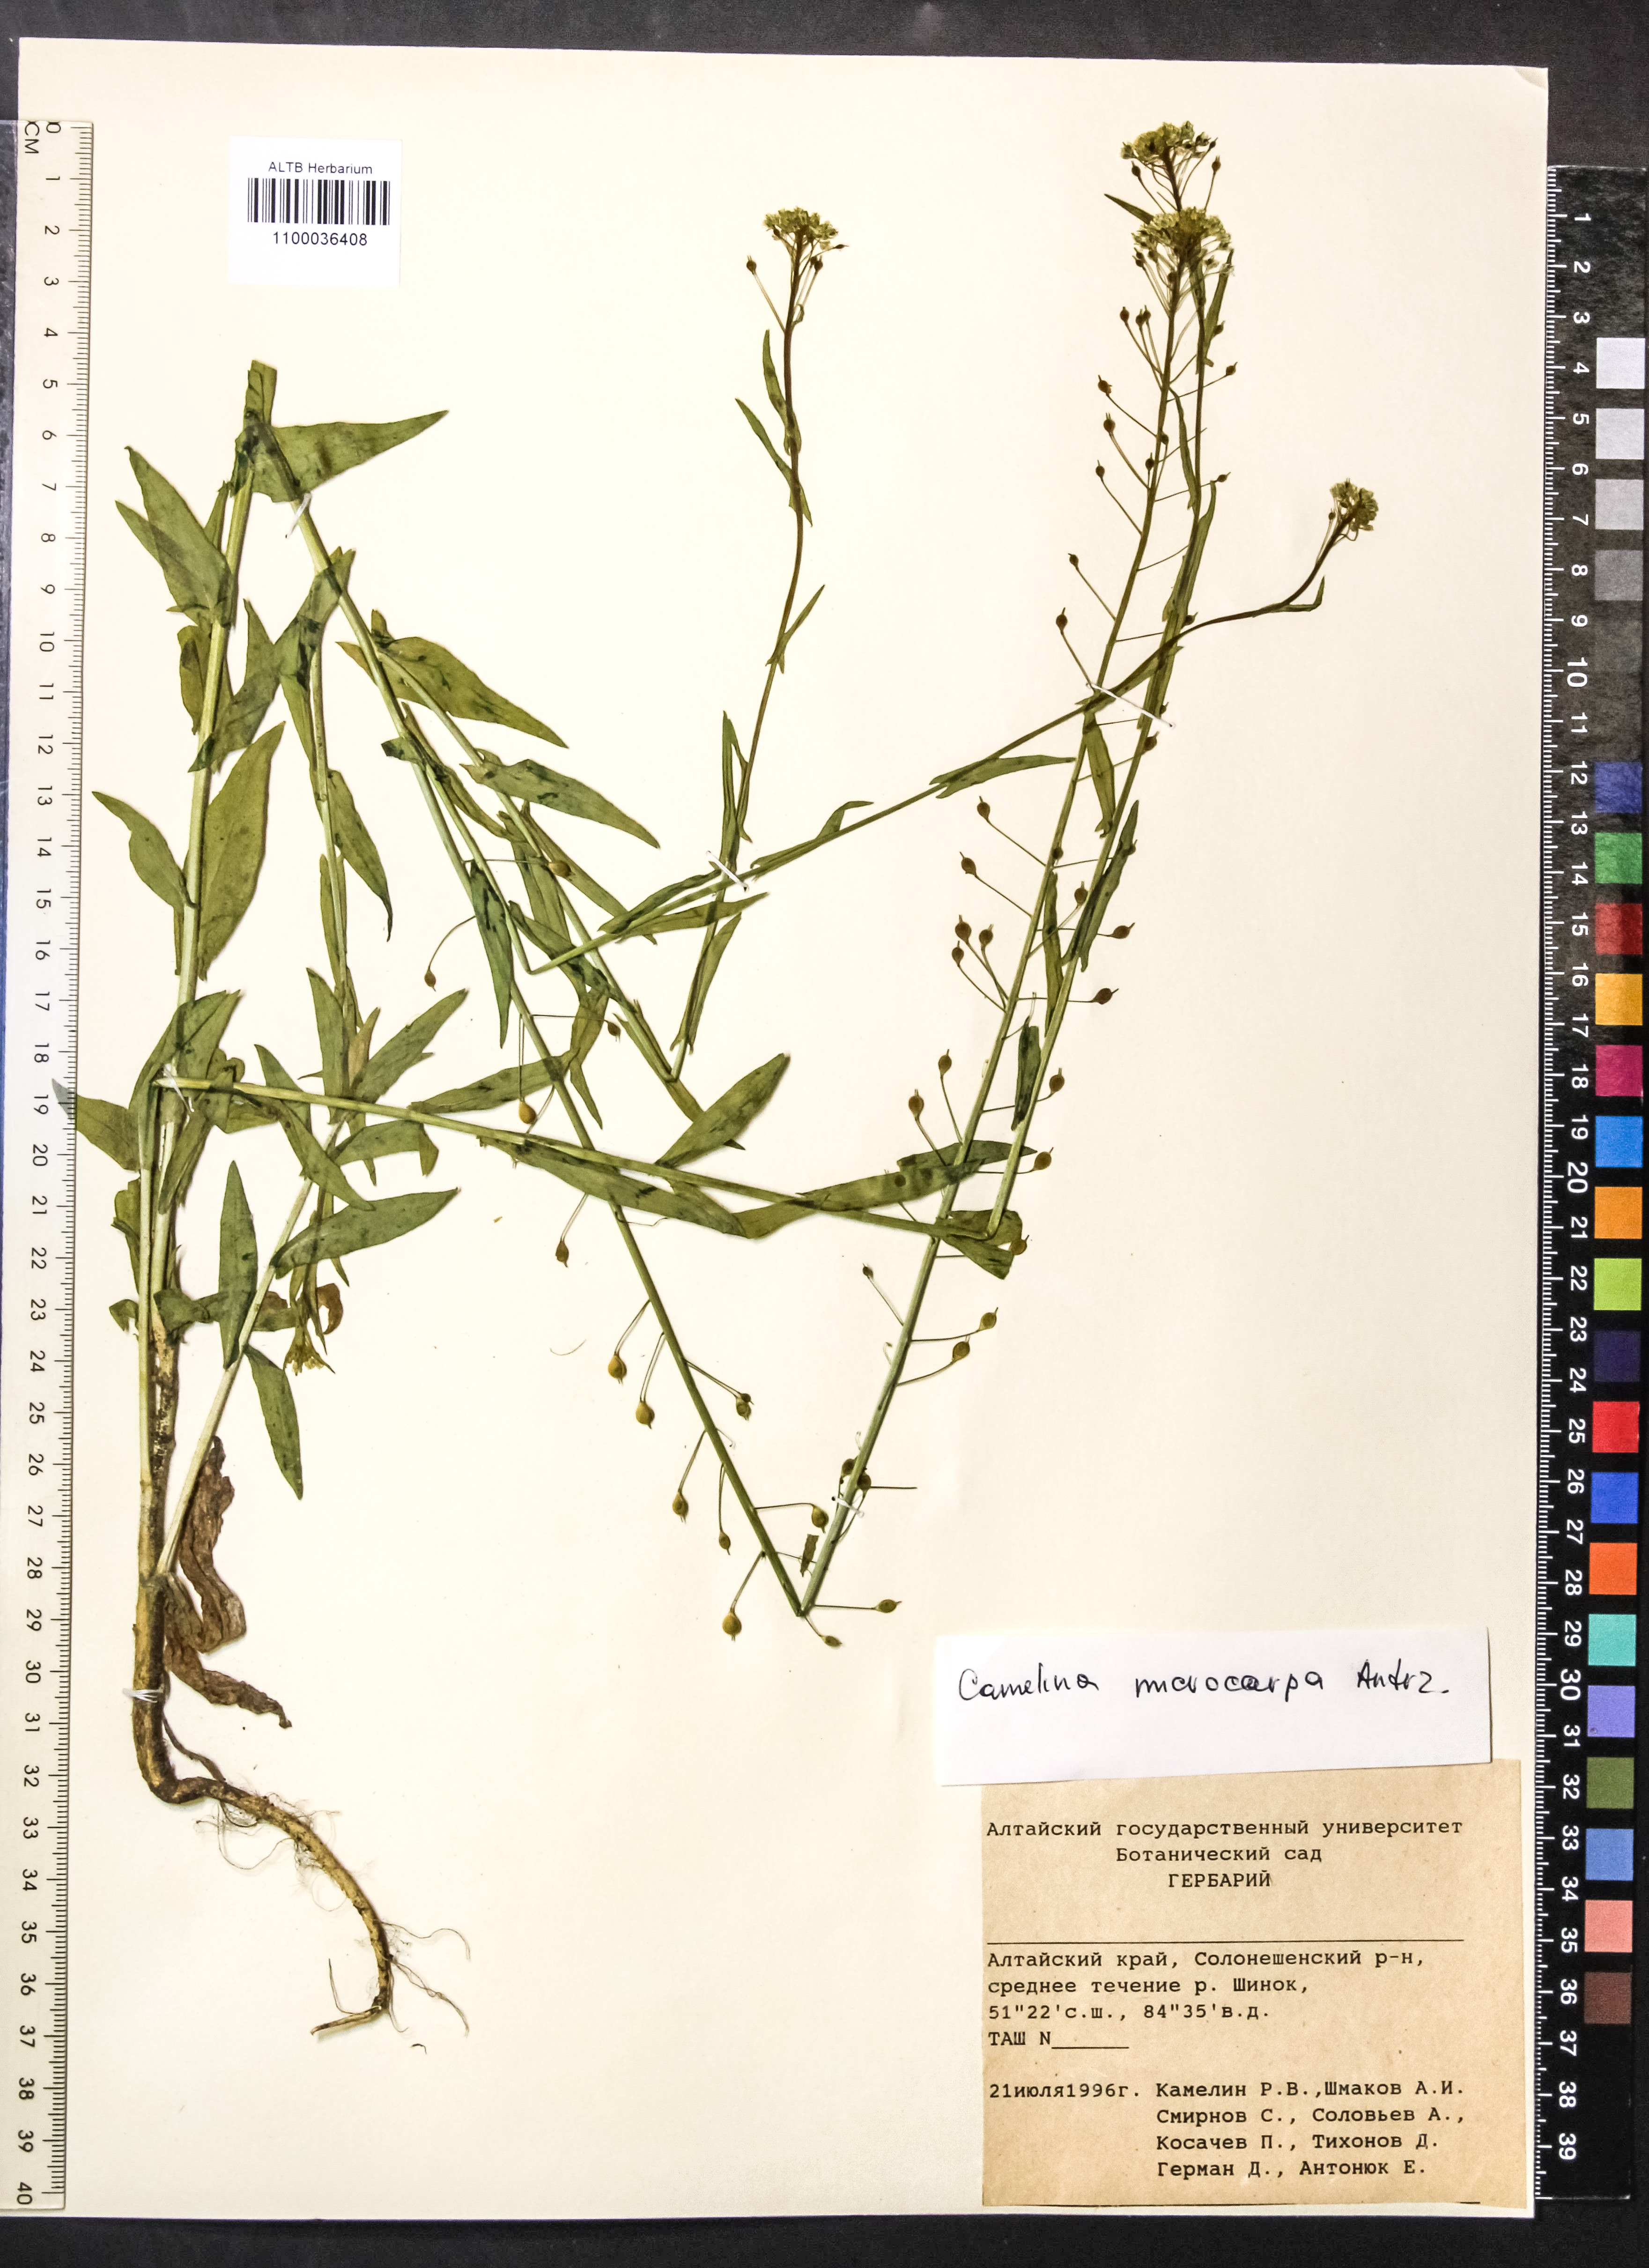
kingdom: Plantae
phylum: Tracheophyta
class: Magnoliopsida
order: Brassicales
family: Brassicaceae
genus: Camelina
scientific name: Camelina microcarpa
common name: Lesser gold-of-pleasure
